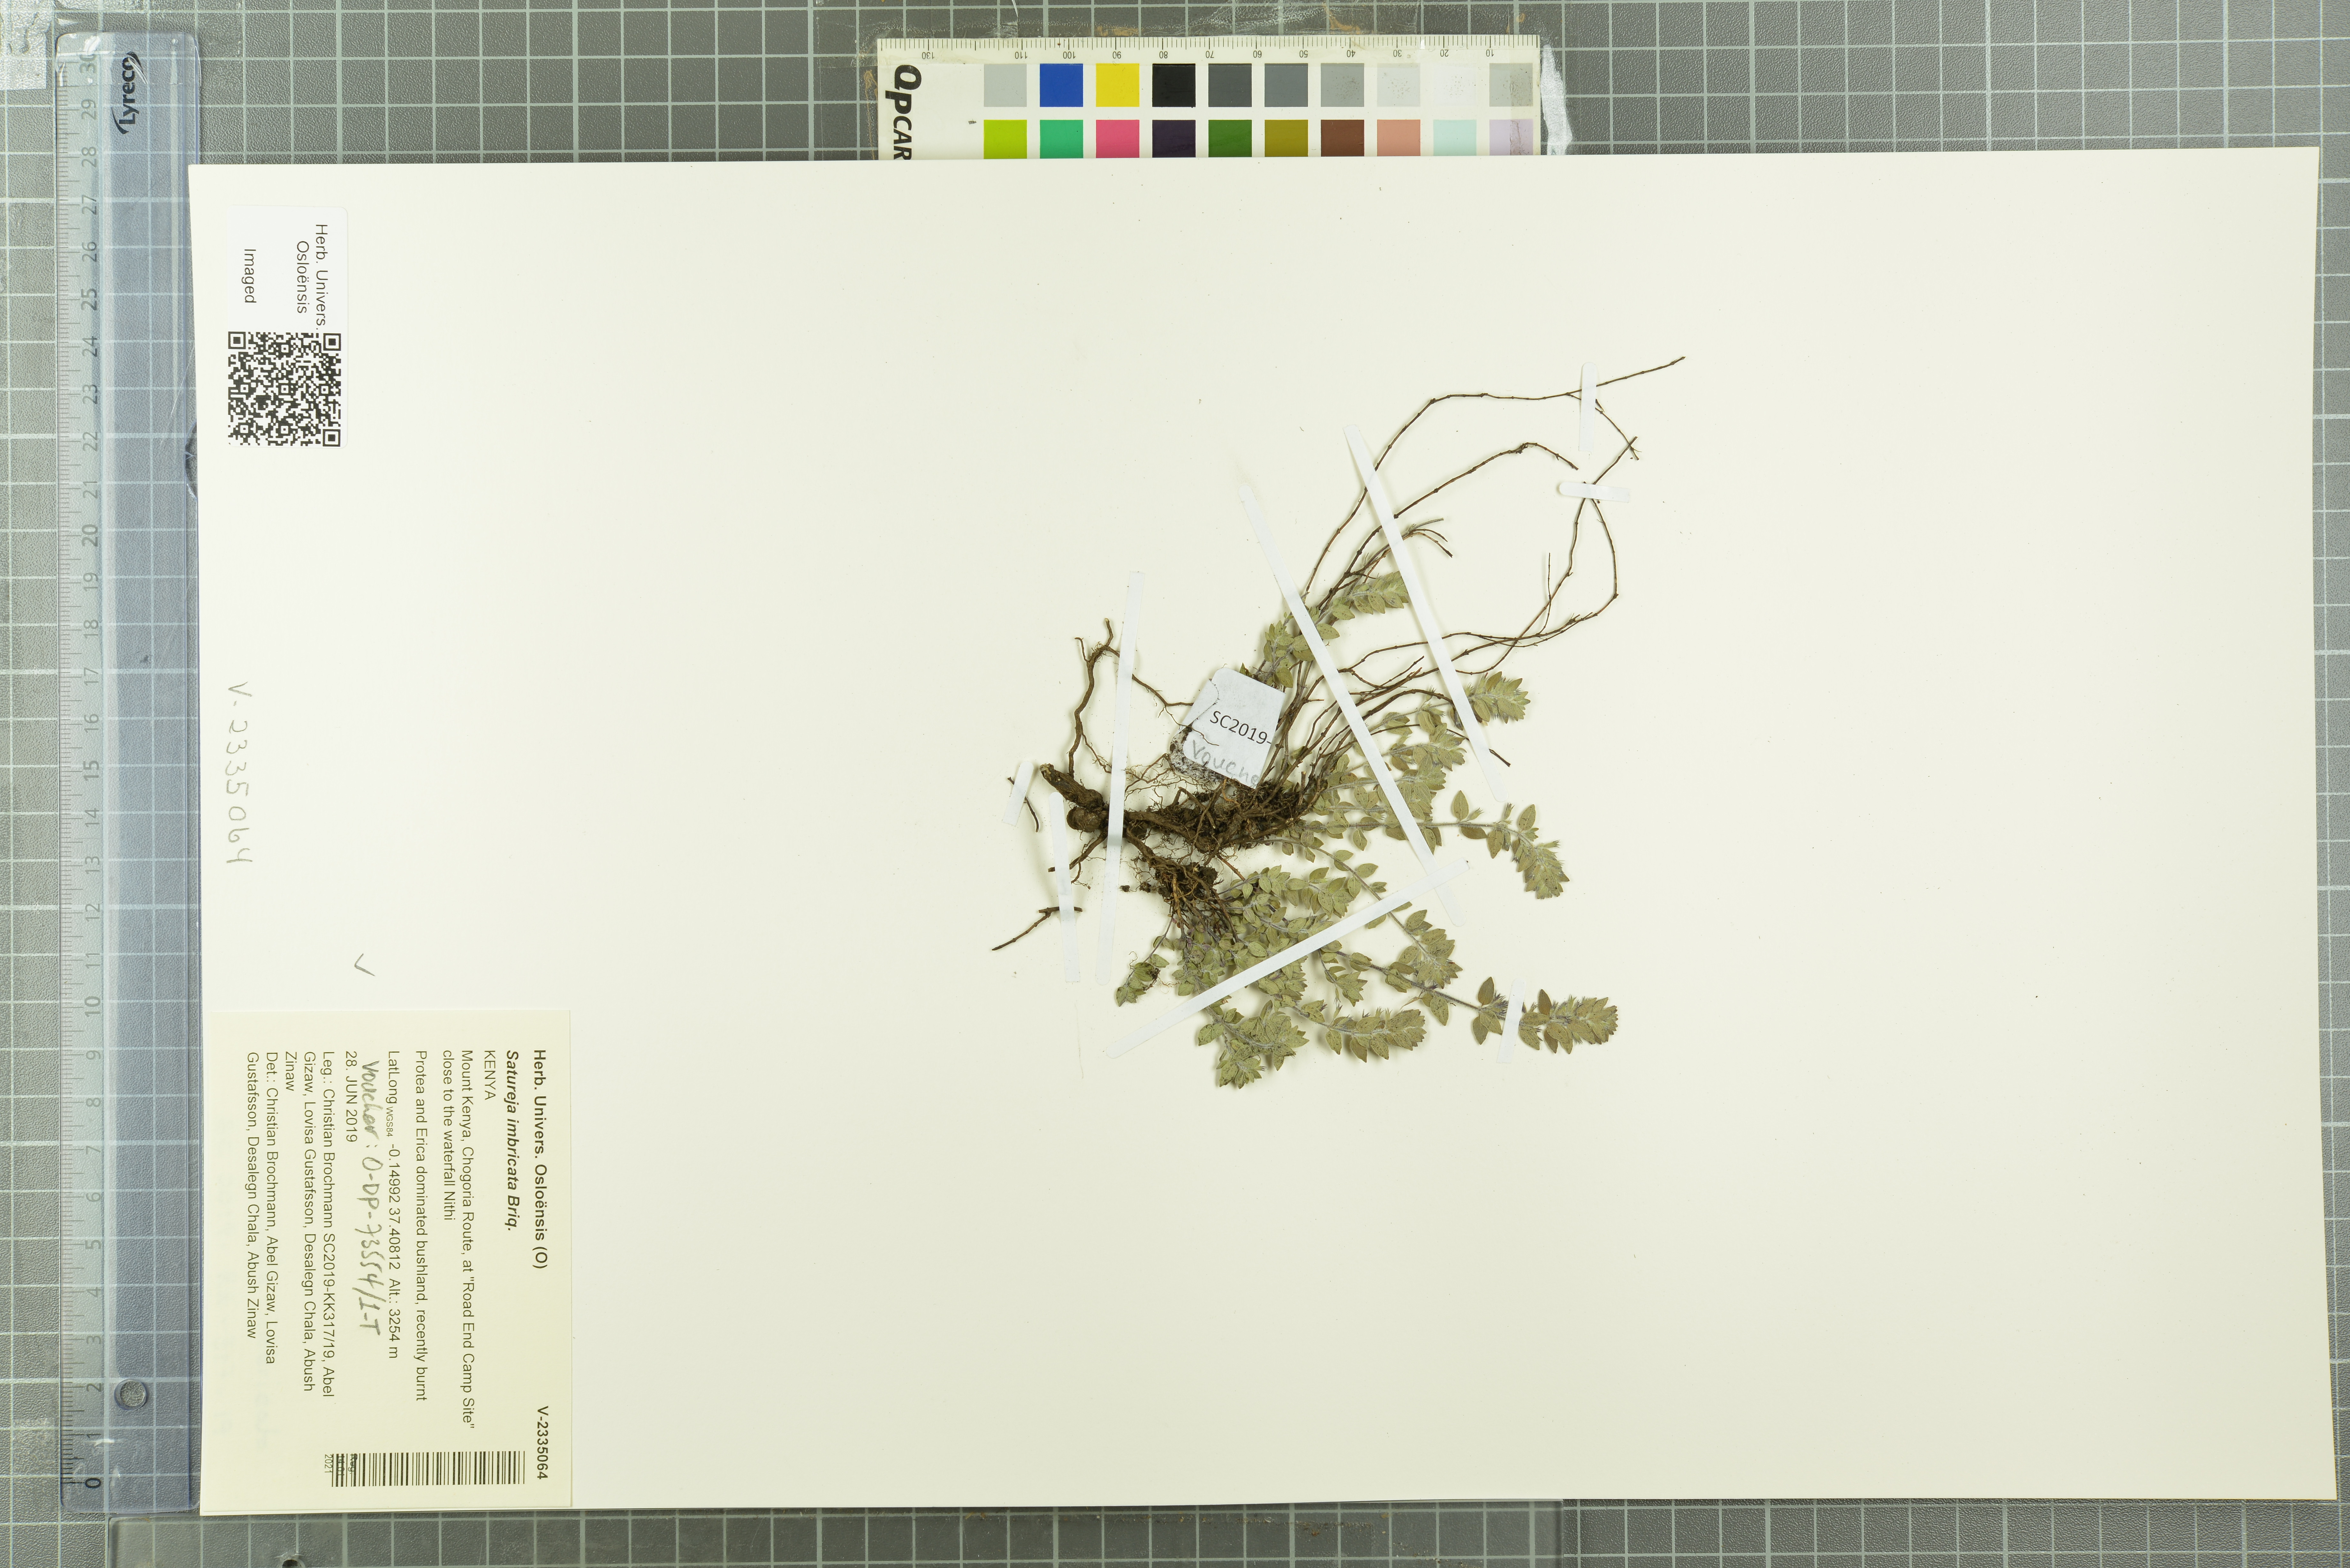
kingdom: Plantae
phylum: Tracheophyta
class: Magnoliopsida
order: Lamiales
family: Lamiaceae
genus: Micromeria
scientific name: Micromeria imbricata
